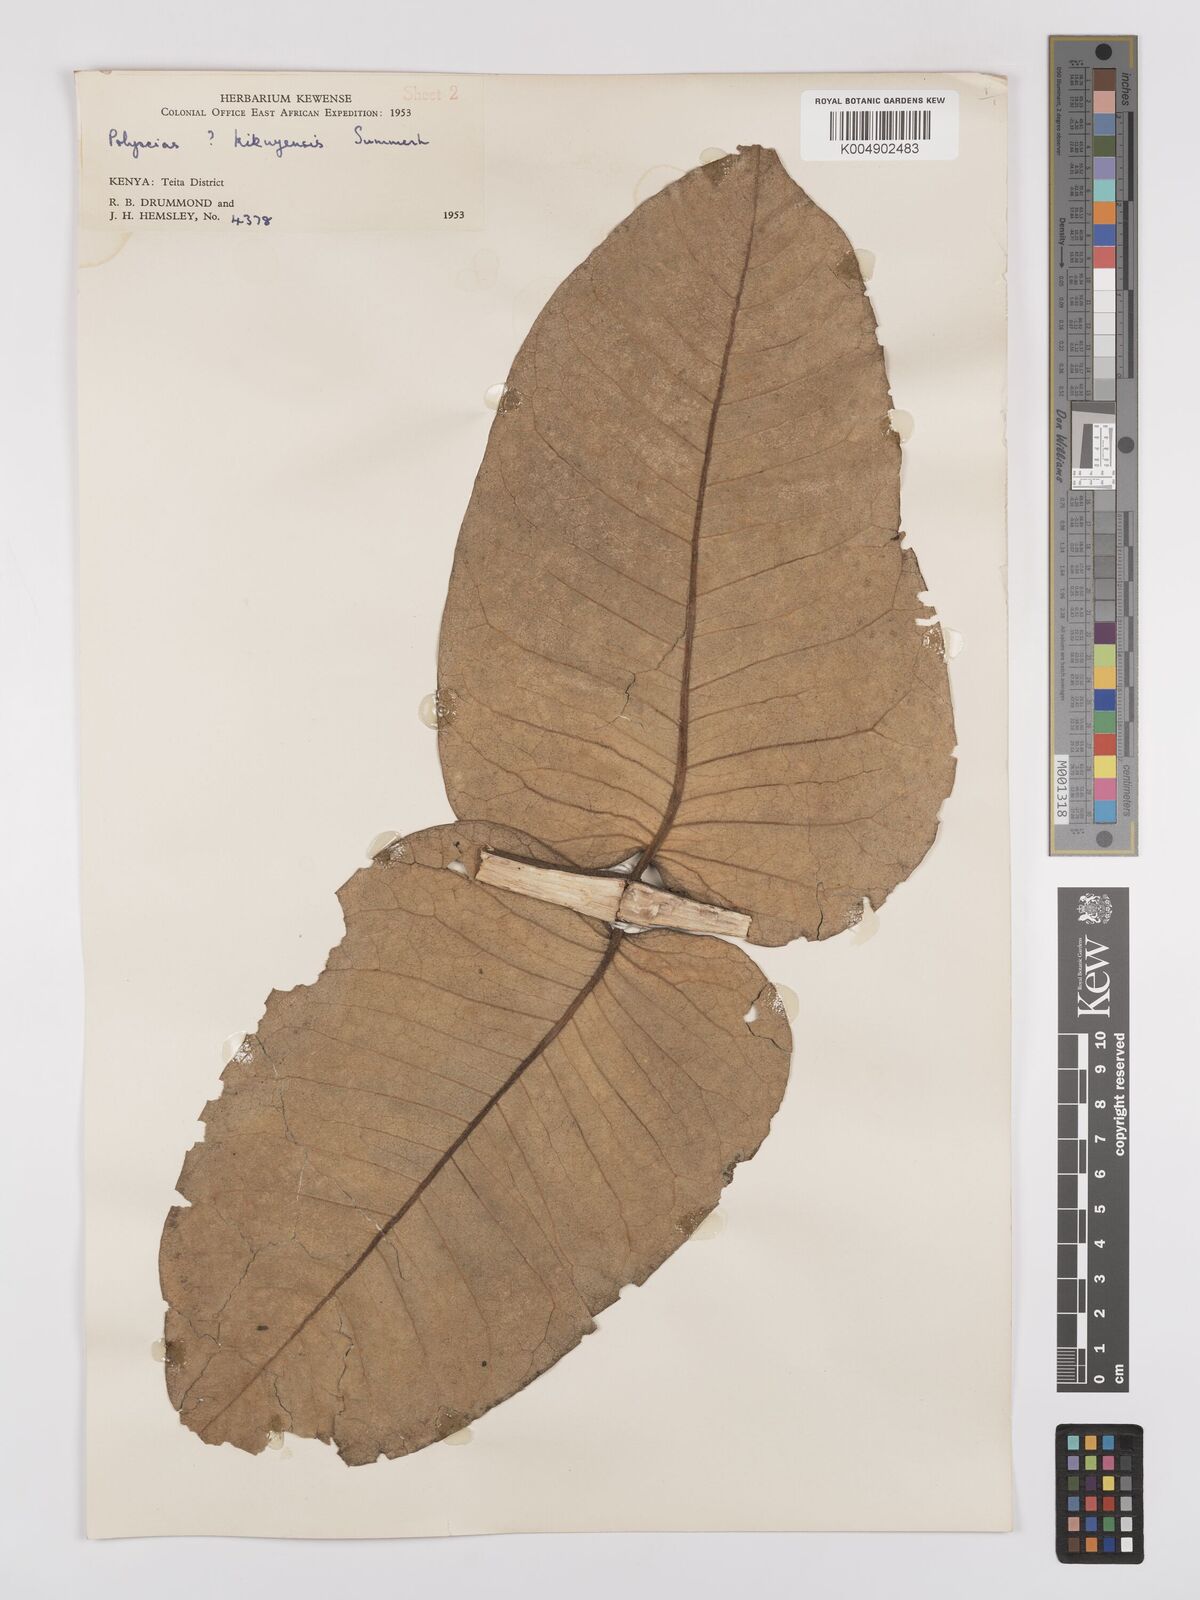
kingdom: Plantae
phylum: Tracheophyta
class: Magnoliopsida
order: Apiales
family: Araliaceae
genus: Polyscias
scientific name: Polyscias fulva
